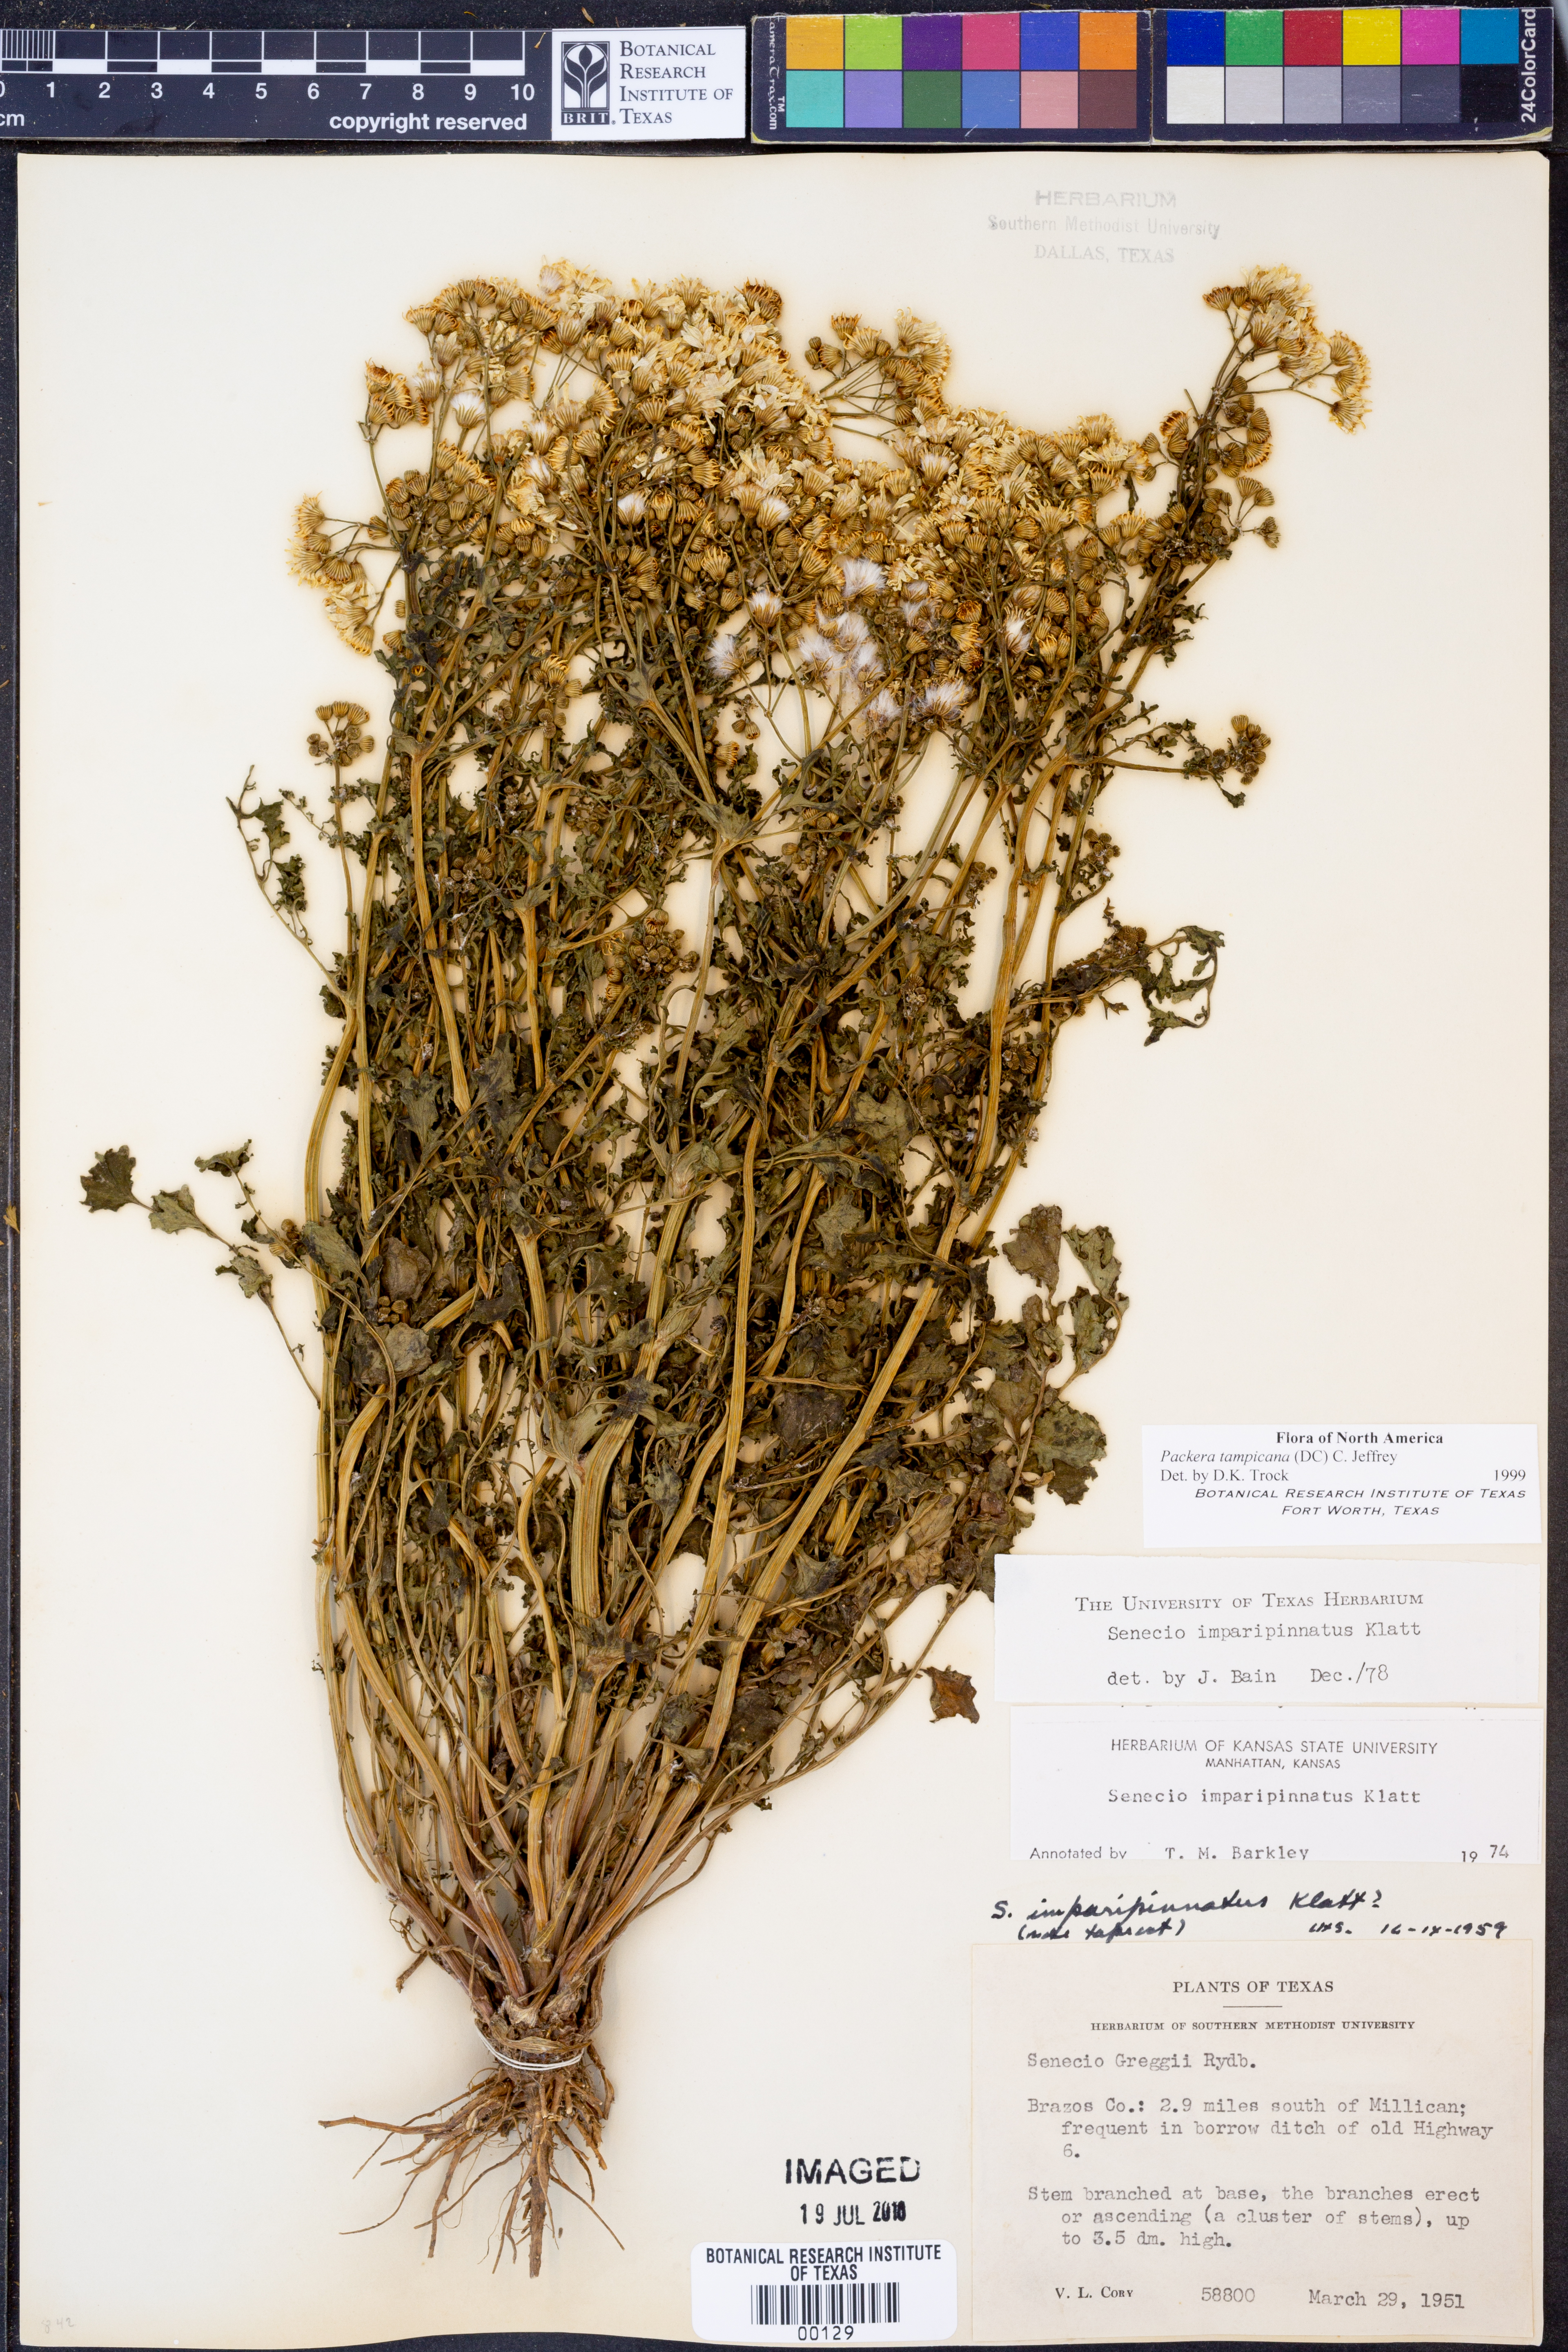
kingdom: Plantae
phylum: Tracheophyta
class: Magnoliopsida
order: Asterales
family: Asteraceae
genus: Packera
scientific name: Packera tampicana
